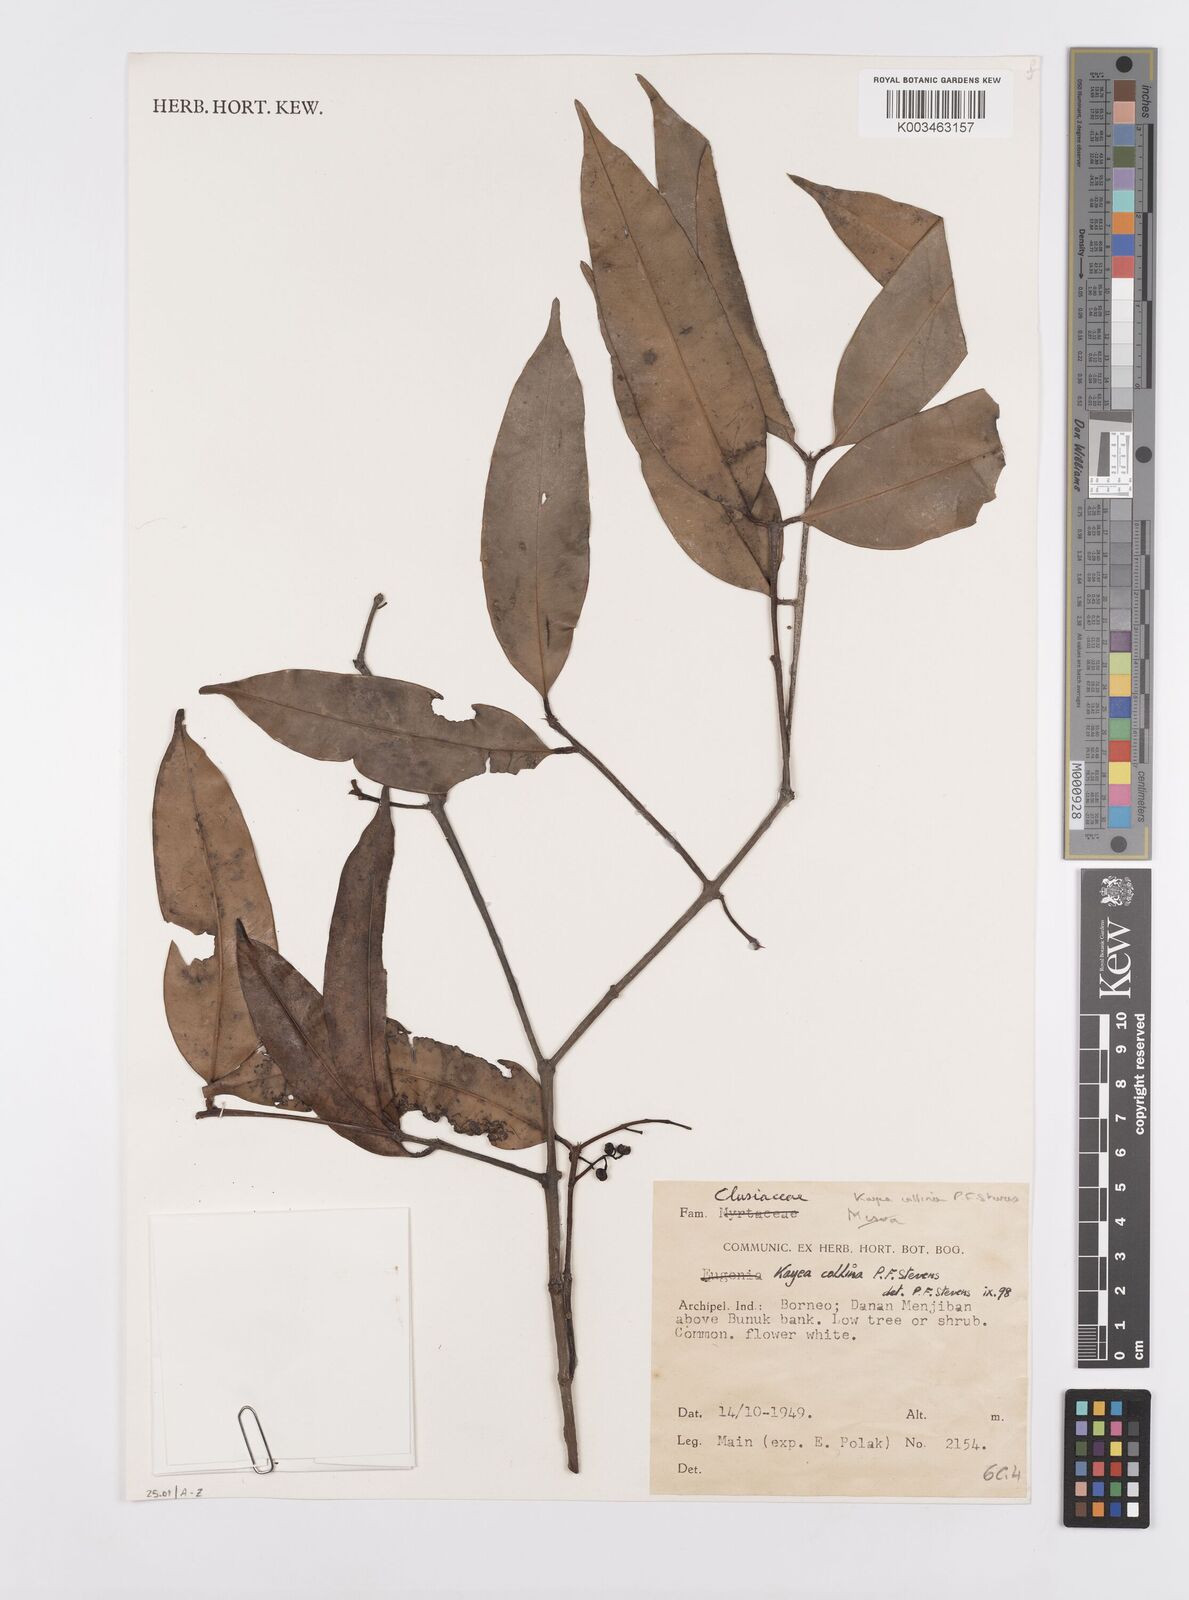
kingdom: Plantae
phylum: Tracheophyta
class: Magnoliopsida
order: Malpighiales
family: Calophyllaceae
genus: Kayea
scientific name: Kayea
